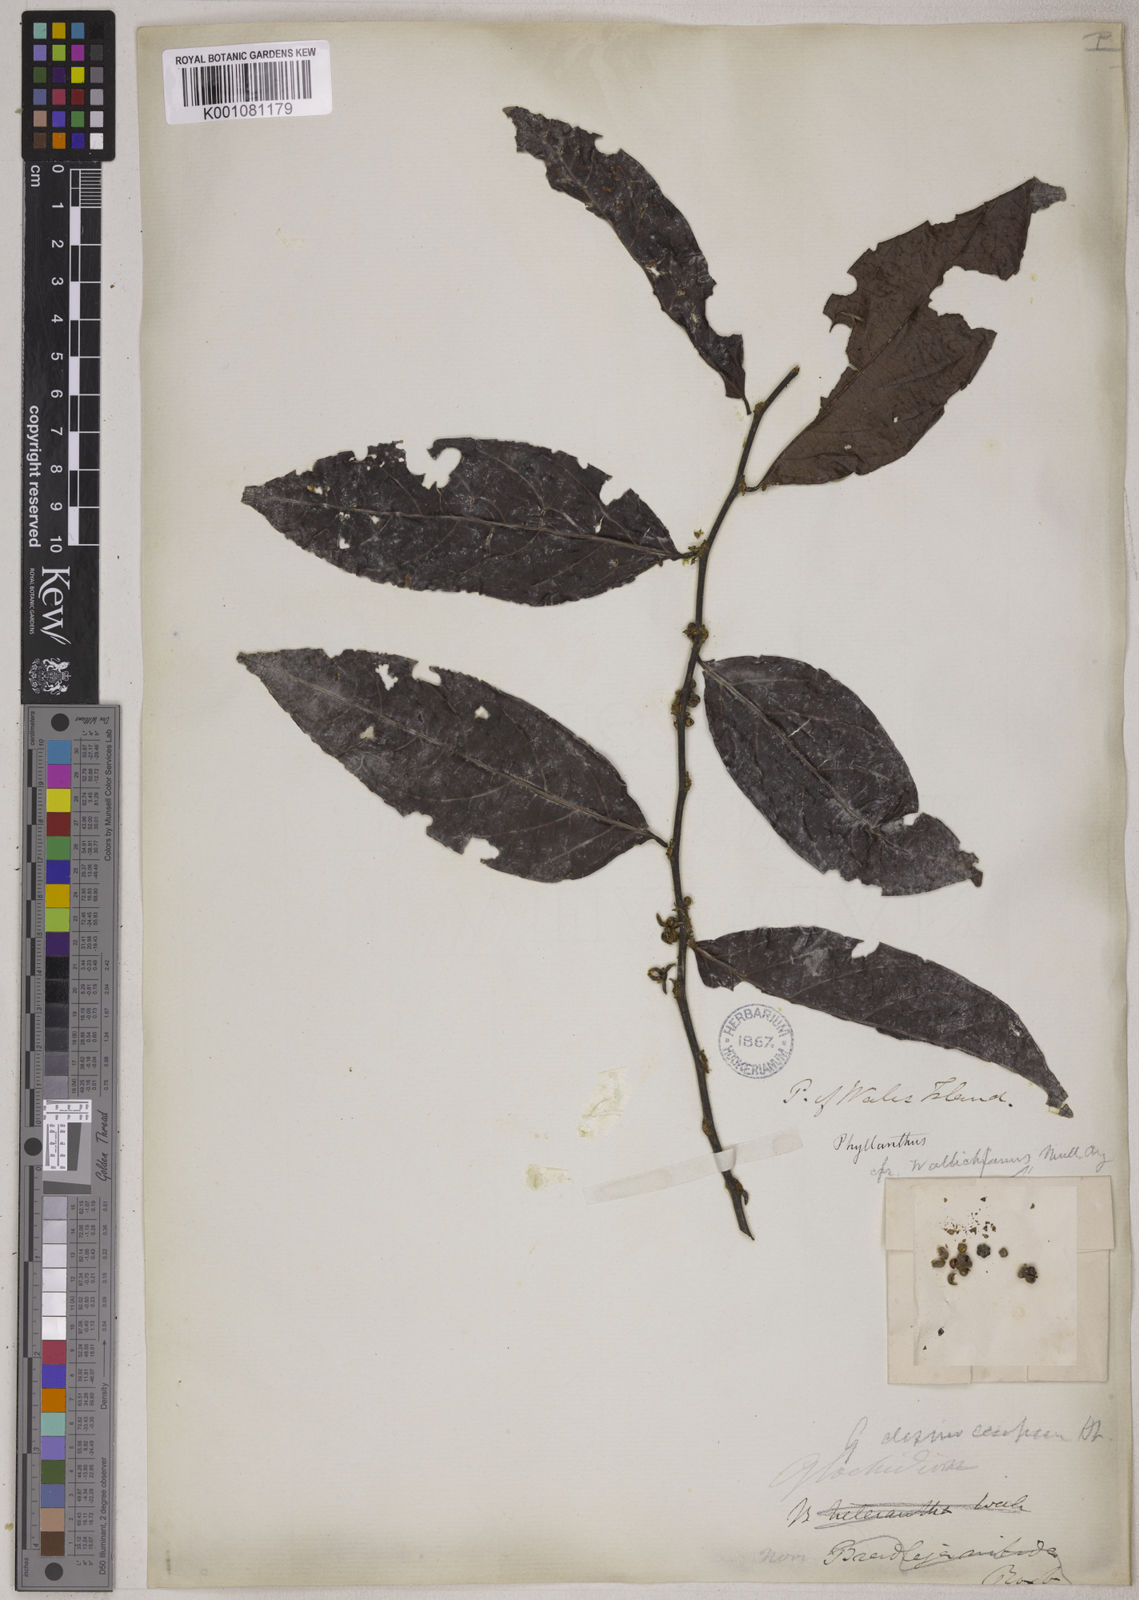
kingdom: Plantae
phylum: Tracheophyta
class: Magnoliopsida
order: Malpighiales
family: Phyllanthaceae
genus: Glochidion
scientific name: Glochidion glomerulatum
